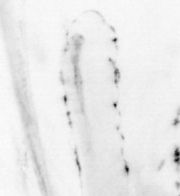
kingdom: Animalia
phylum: Chordata
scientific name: Chordata
